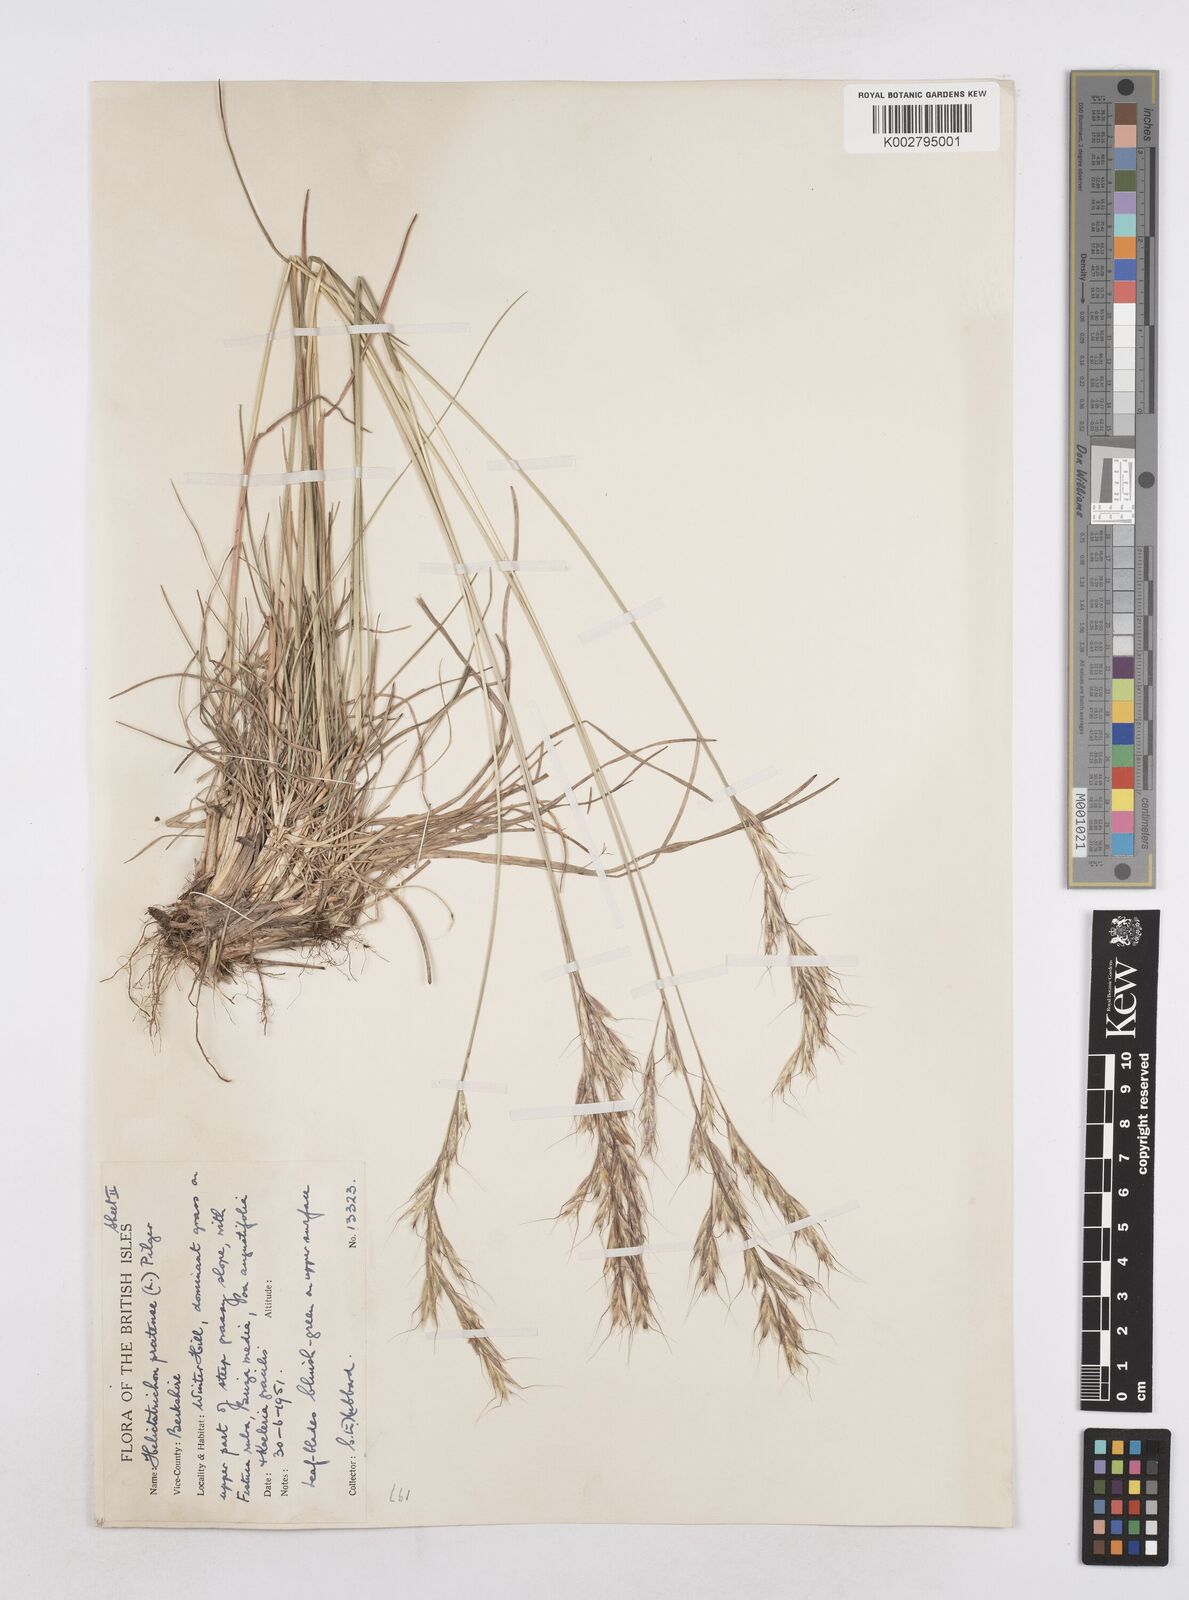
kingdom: Plantae
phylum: Tracheophyta
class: Liliopsida
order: Poales
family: Poaceae
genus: Helictochloa
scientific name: Helictochloa pratensis
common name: Meadow oat grass
